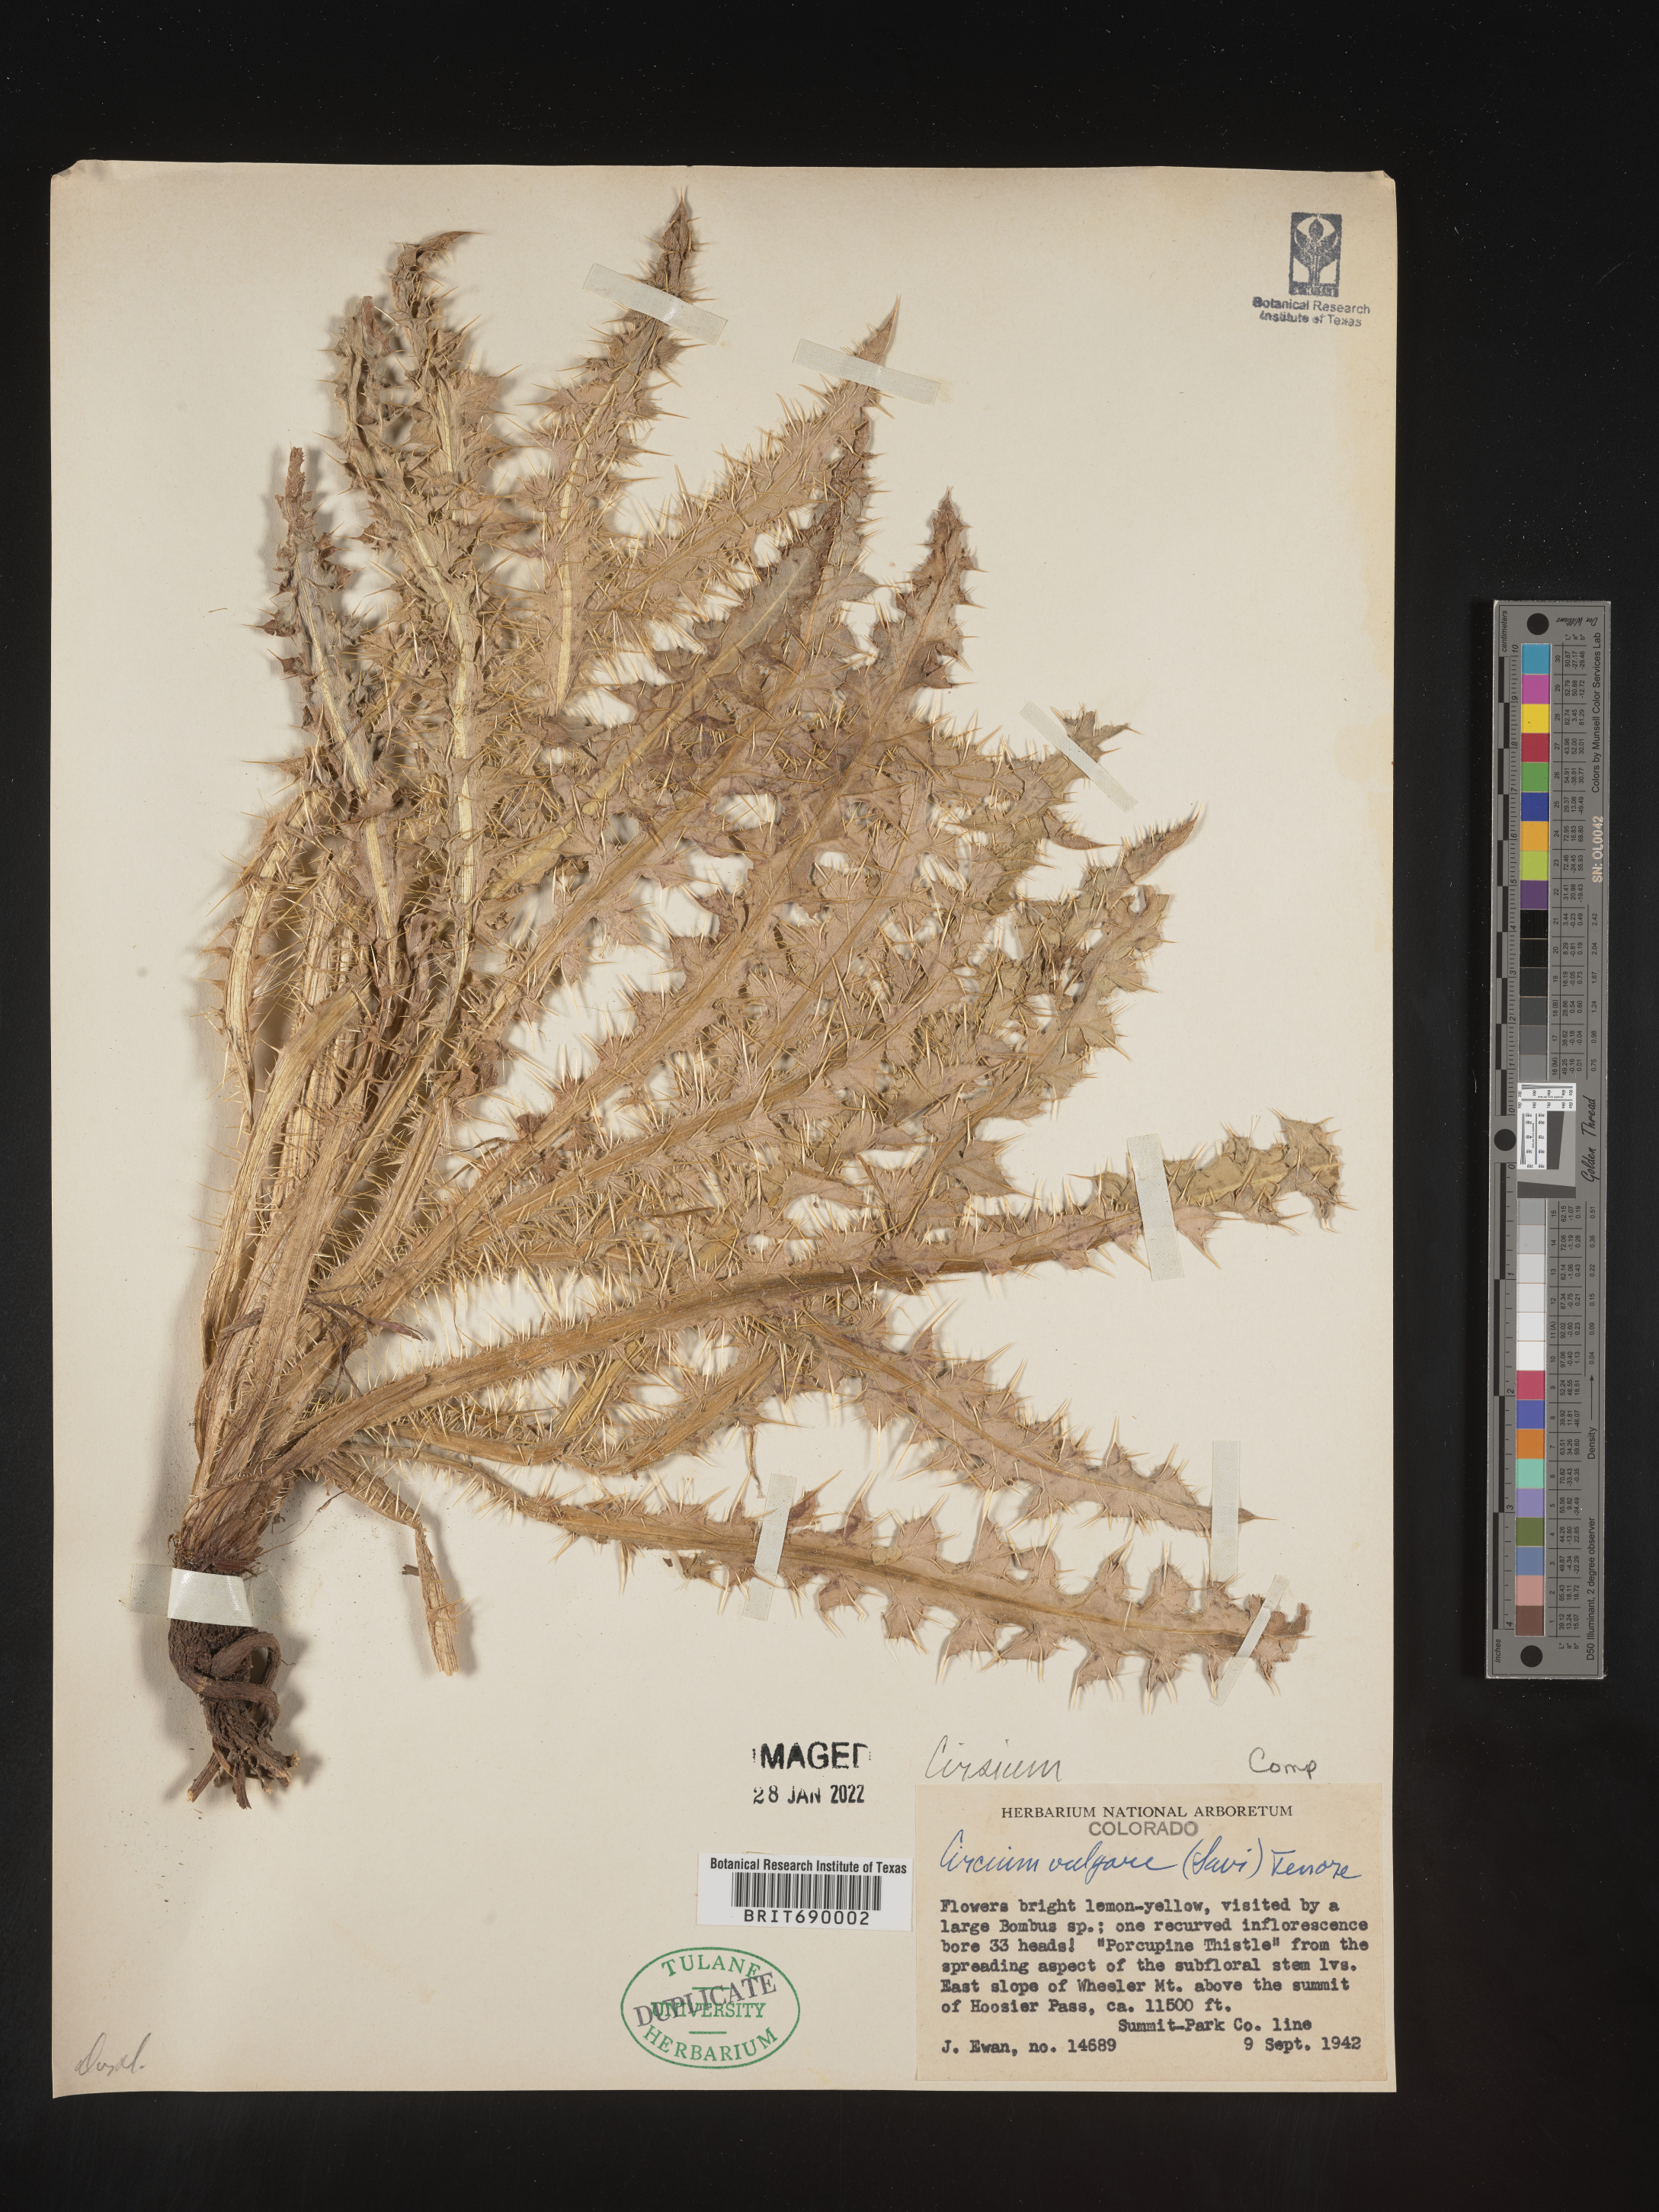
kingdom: Plantae
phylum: Tracheophyta
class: Magnoliopsida
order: Asterales
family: Asteraceae
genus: Cirsium
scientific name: Cirsium vulgare
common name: Bull thistle
